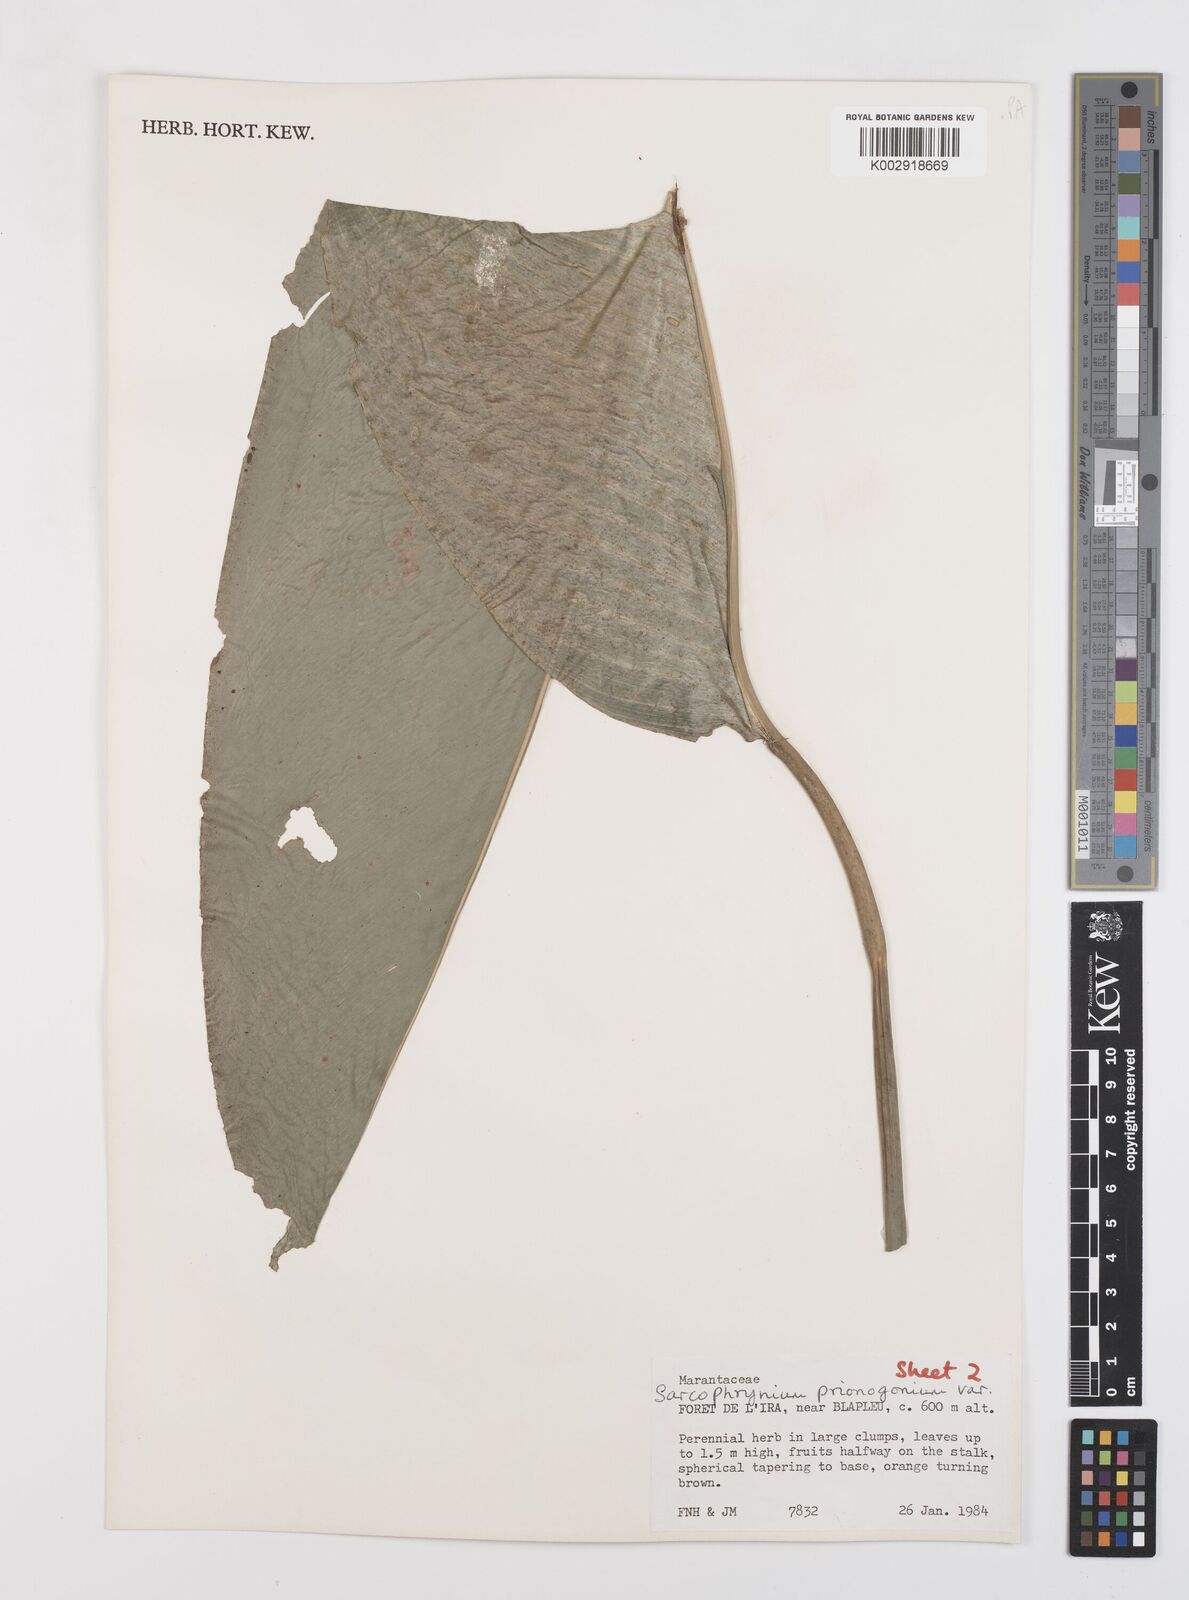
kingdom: Plantae
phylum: Tracheophyta
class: Liliopsida
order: Zingiberales
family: Marantaceae
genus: Sarcophrynium
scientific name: Sarcophrynium prionogonium
